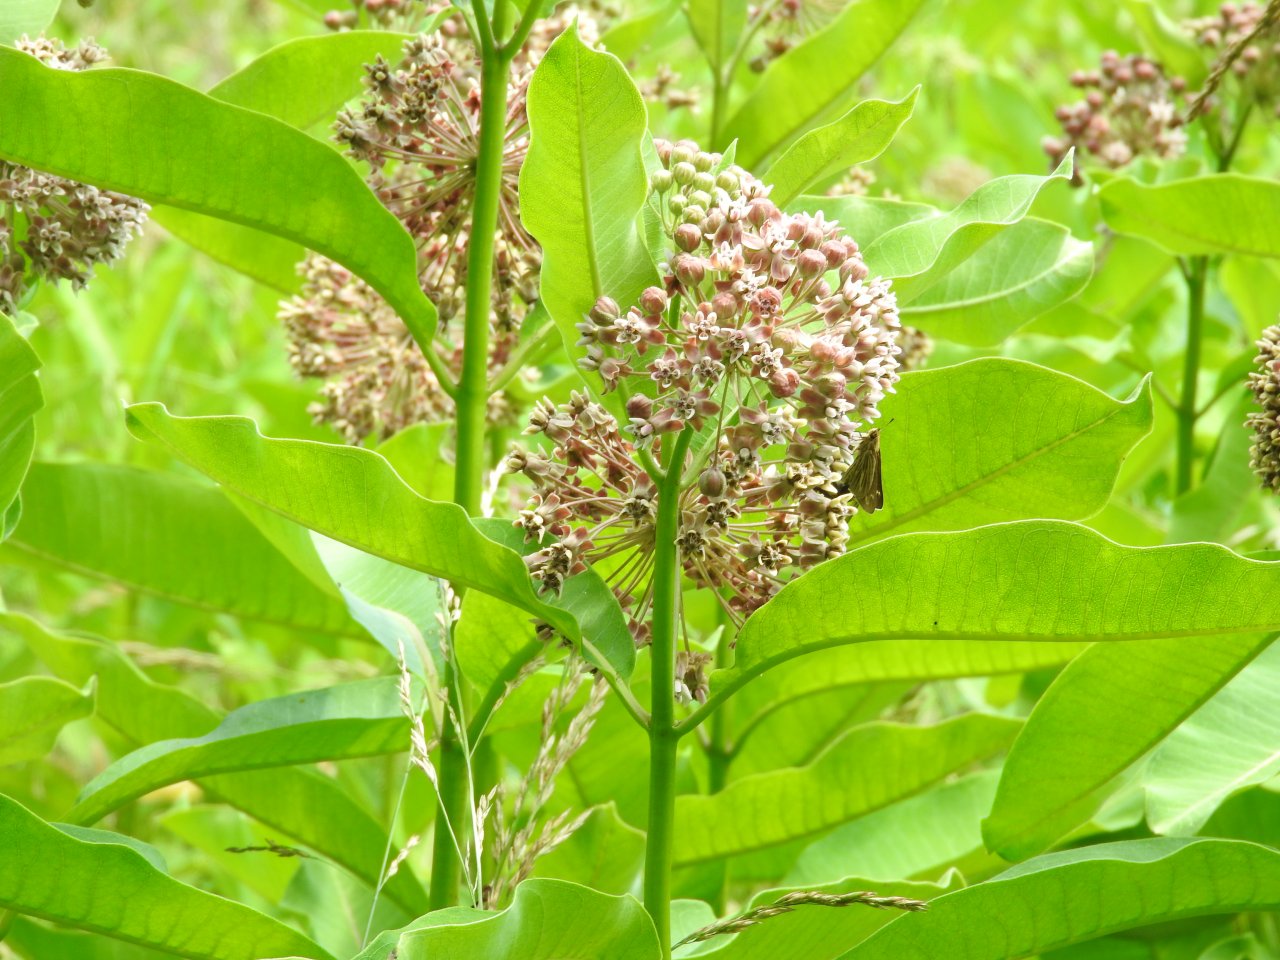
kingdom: Animalia
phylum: Arthropoda
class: Insecta
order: Lepidoptera
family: Hesperiidae
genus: Panoquina
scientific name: Panoquina panoquin
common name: Salt Marsh Skipper
